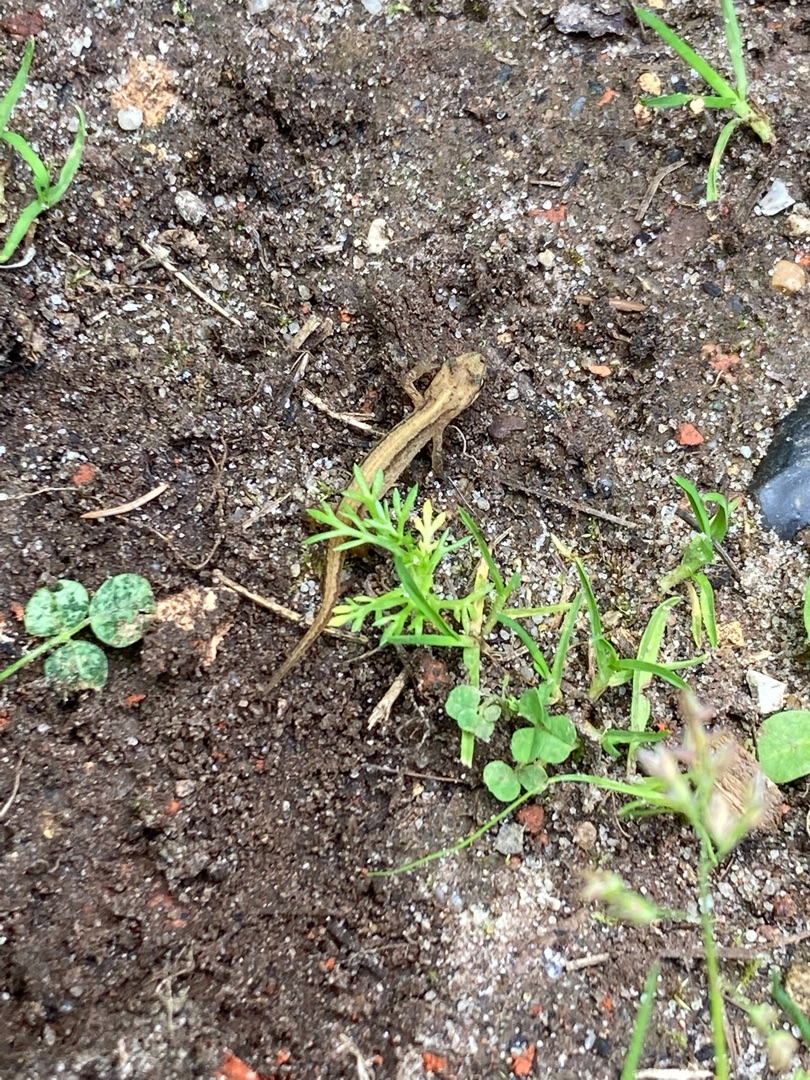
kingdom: Animalia
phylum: Chordata
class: Amphibia
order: Caudata
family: Salamandridae
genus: Lissotriton
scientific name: Lissotriton vulgaris
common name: Lille vandsalamander
